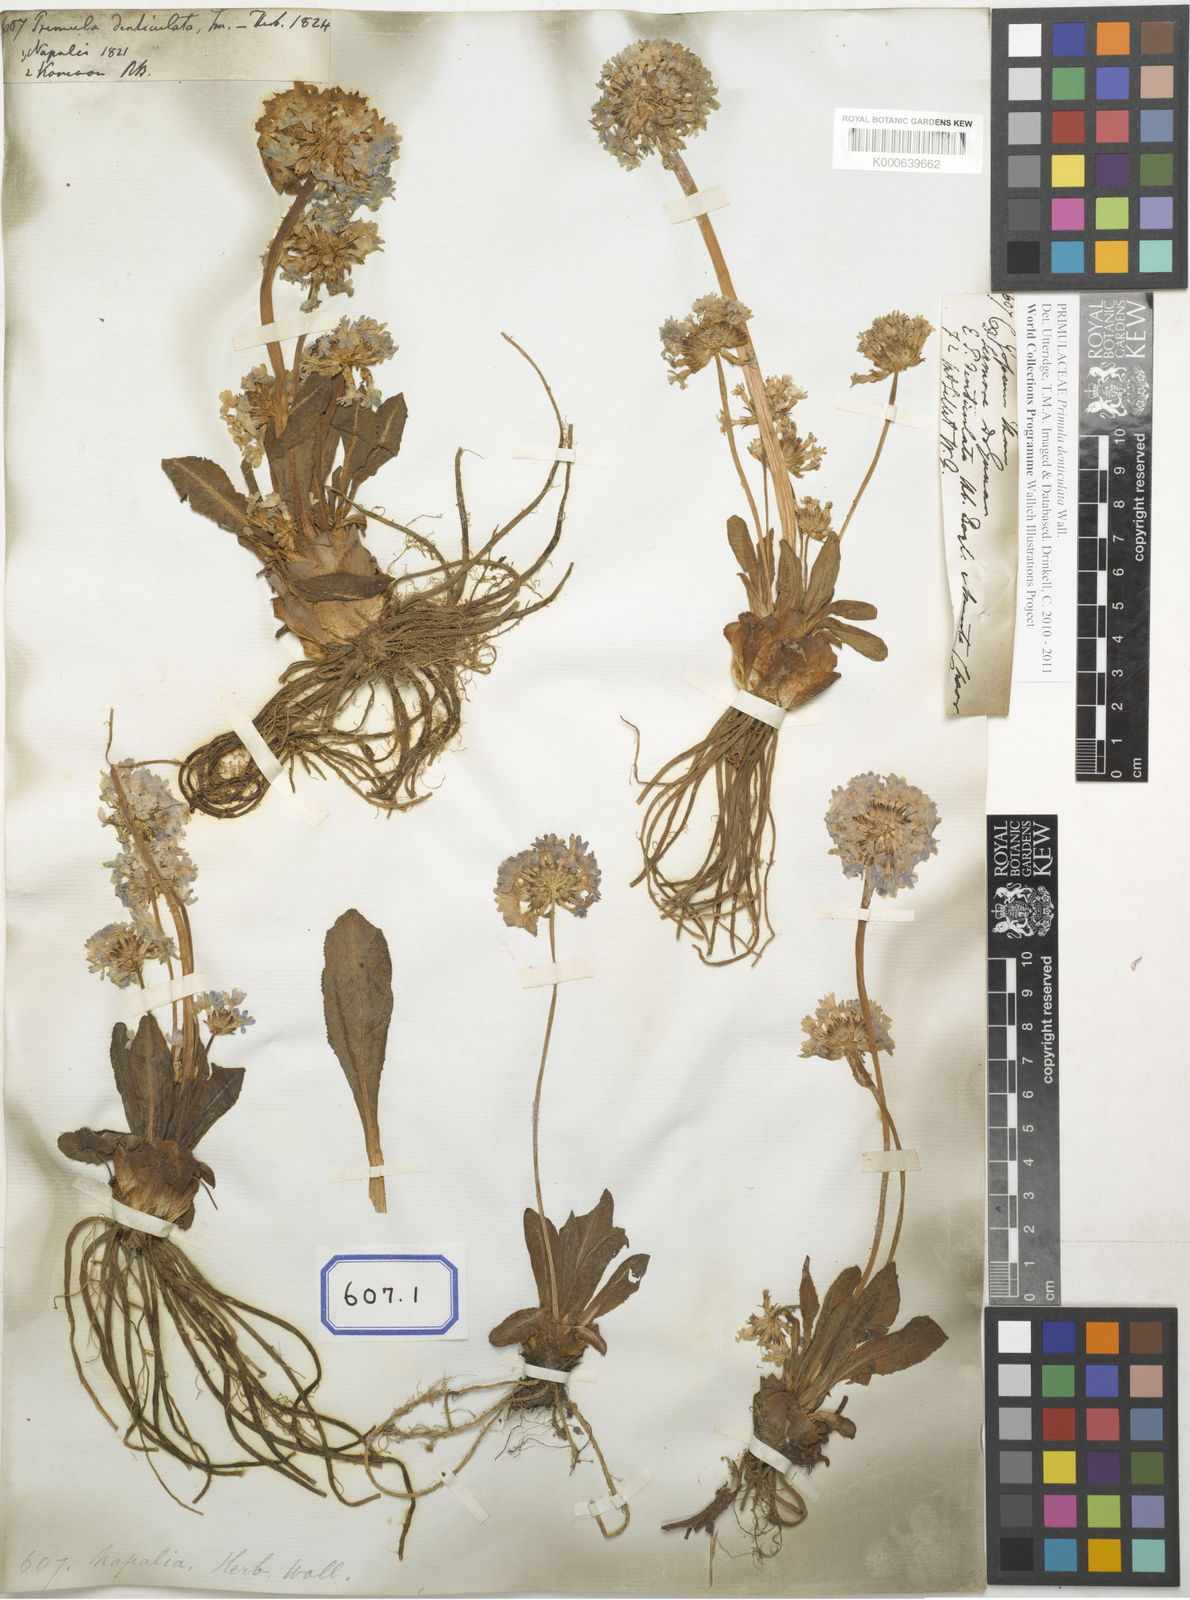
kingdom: Plantae
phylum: Tracheophyta
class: Magnoliopsida
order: Ericales
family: Primulaceae
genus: Primula
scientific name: Primula denticulata
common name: Drumstick primula
